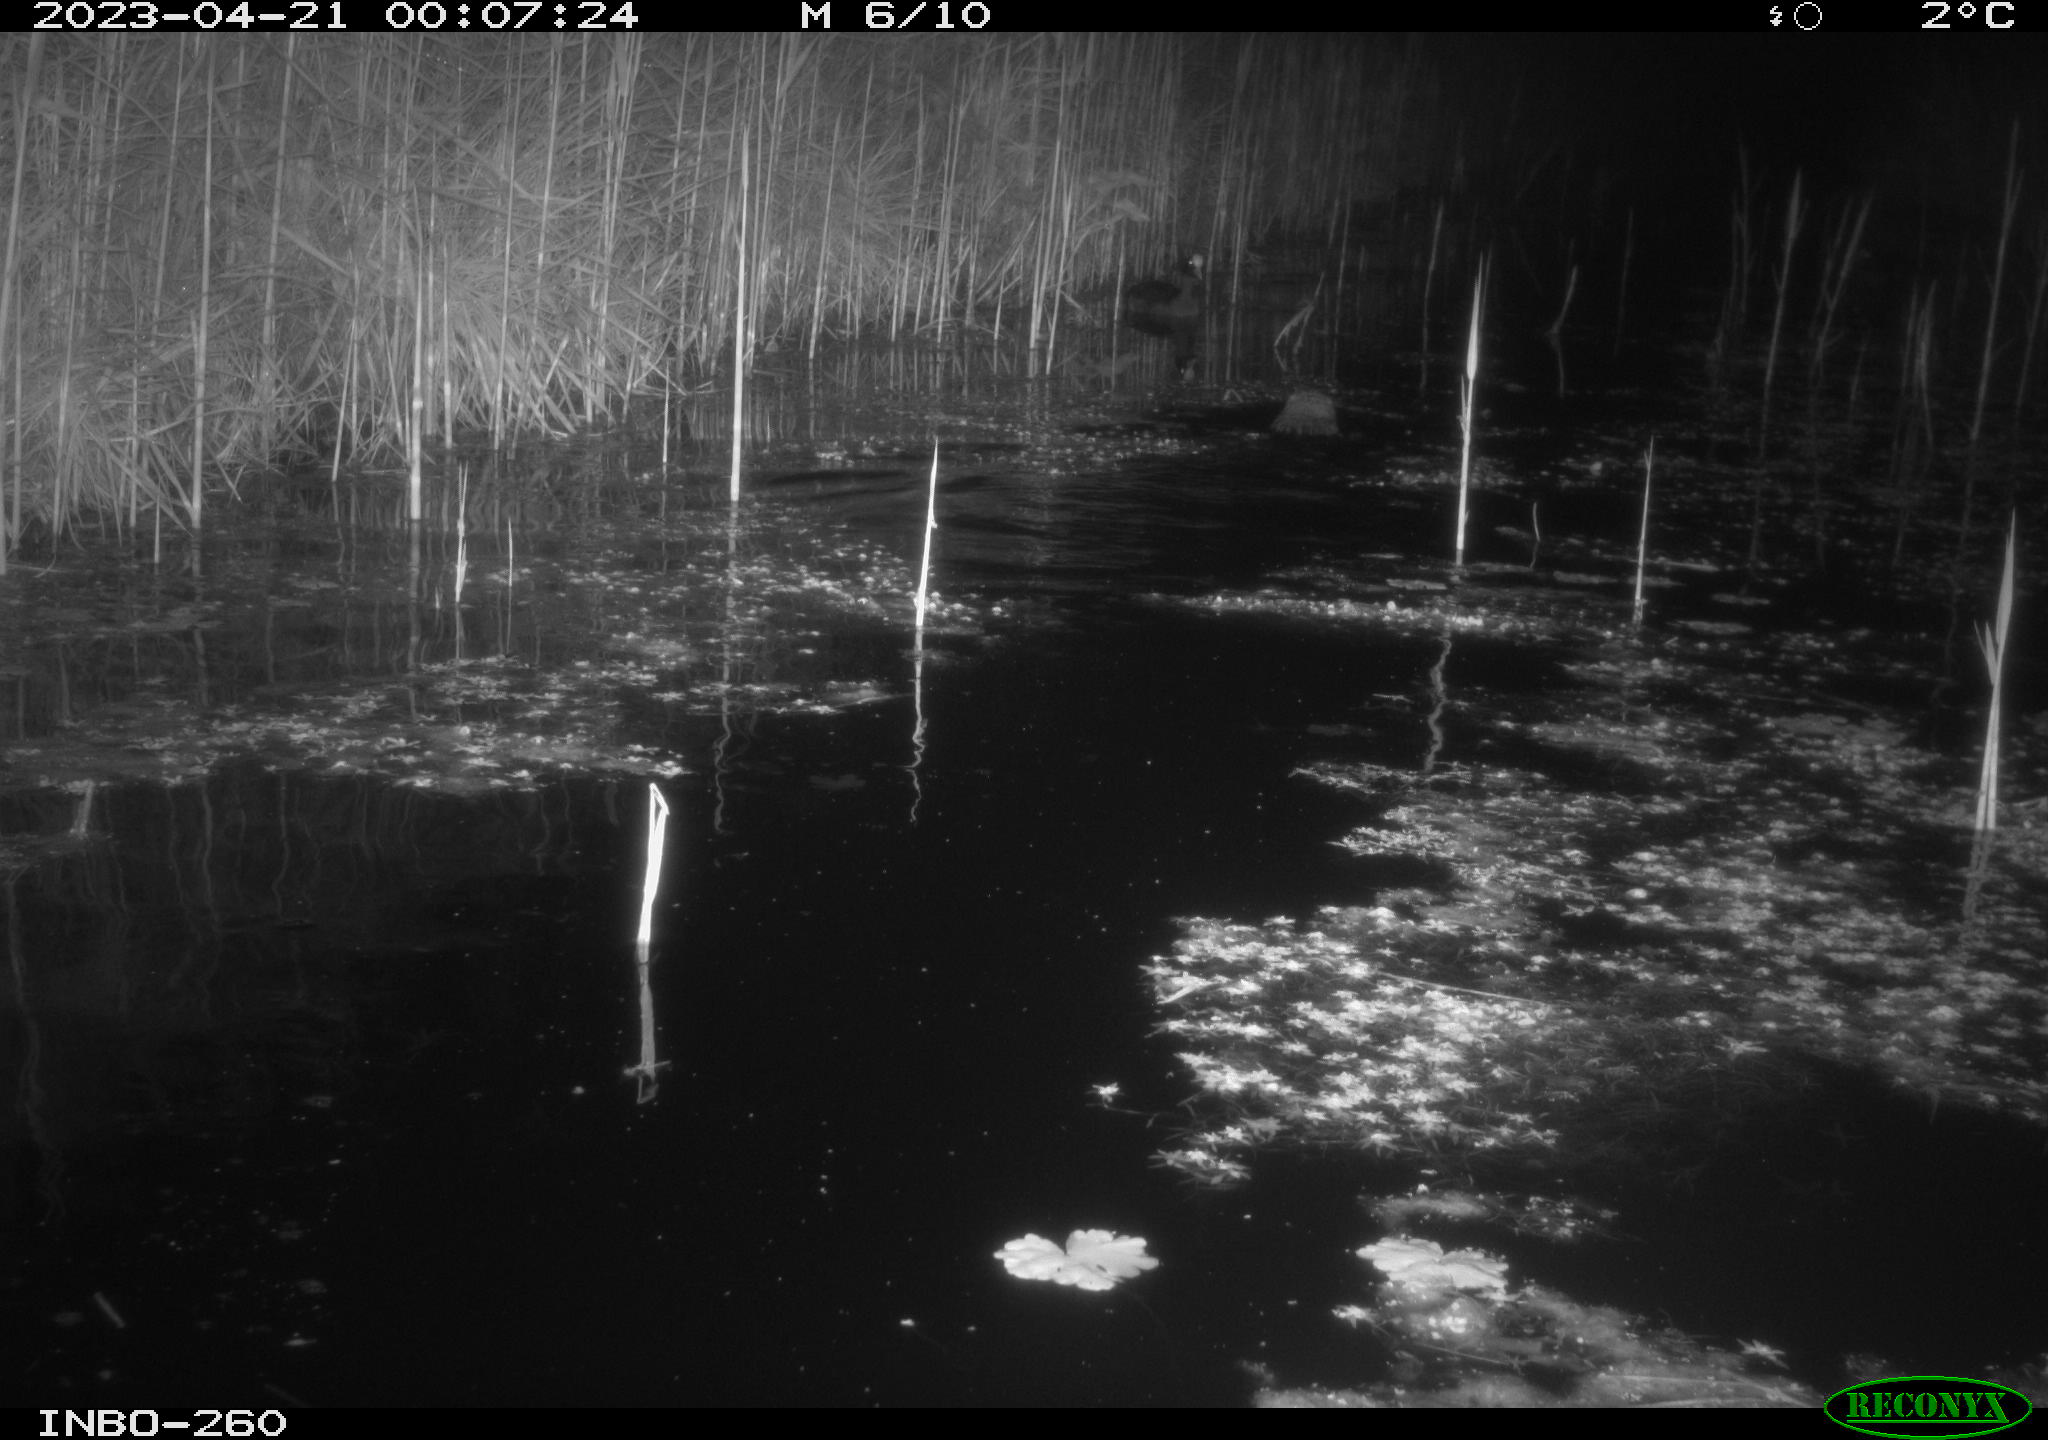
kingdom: Animalia
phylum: Chordata
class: Mammalia
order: Rodentia
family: Cricetidae
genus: Ondatra
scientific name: Ondatra zibethicus
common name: Muskrat
